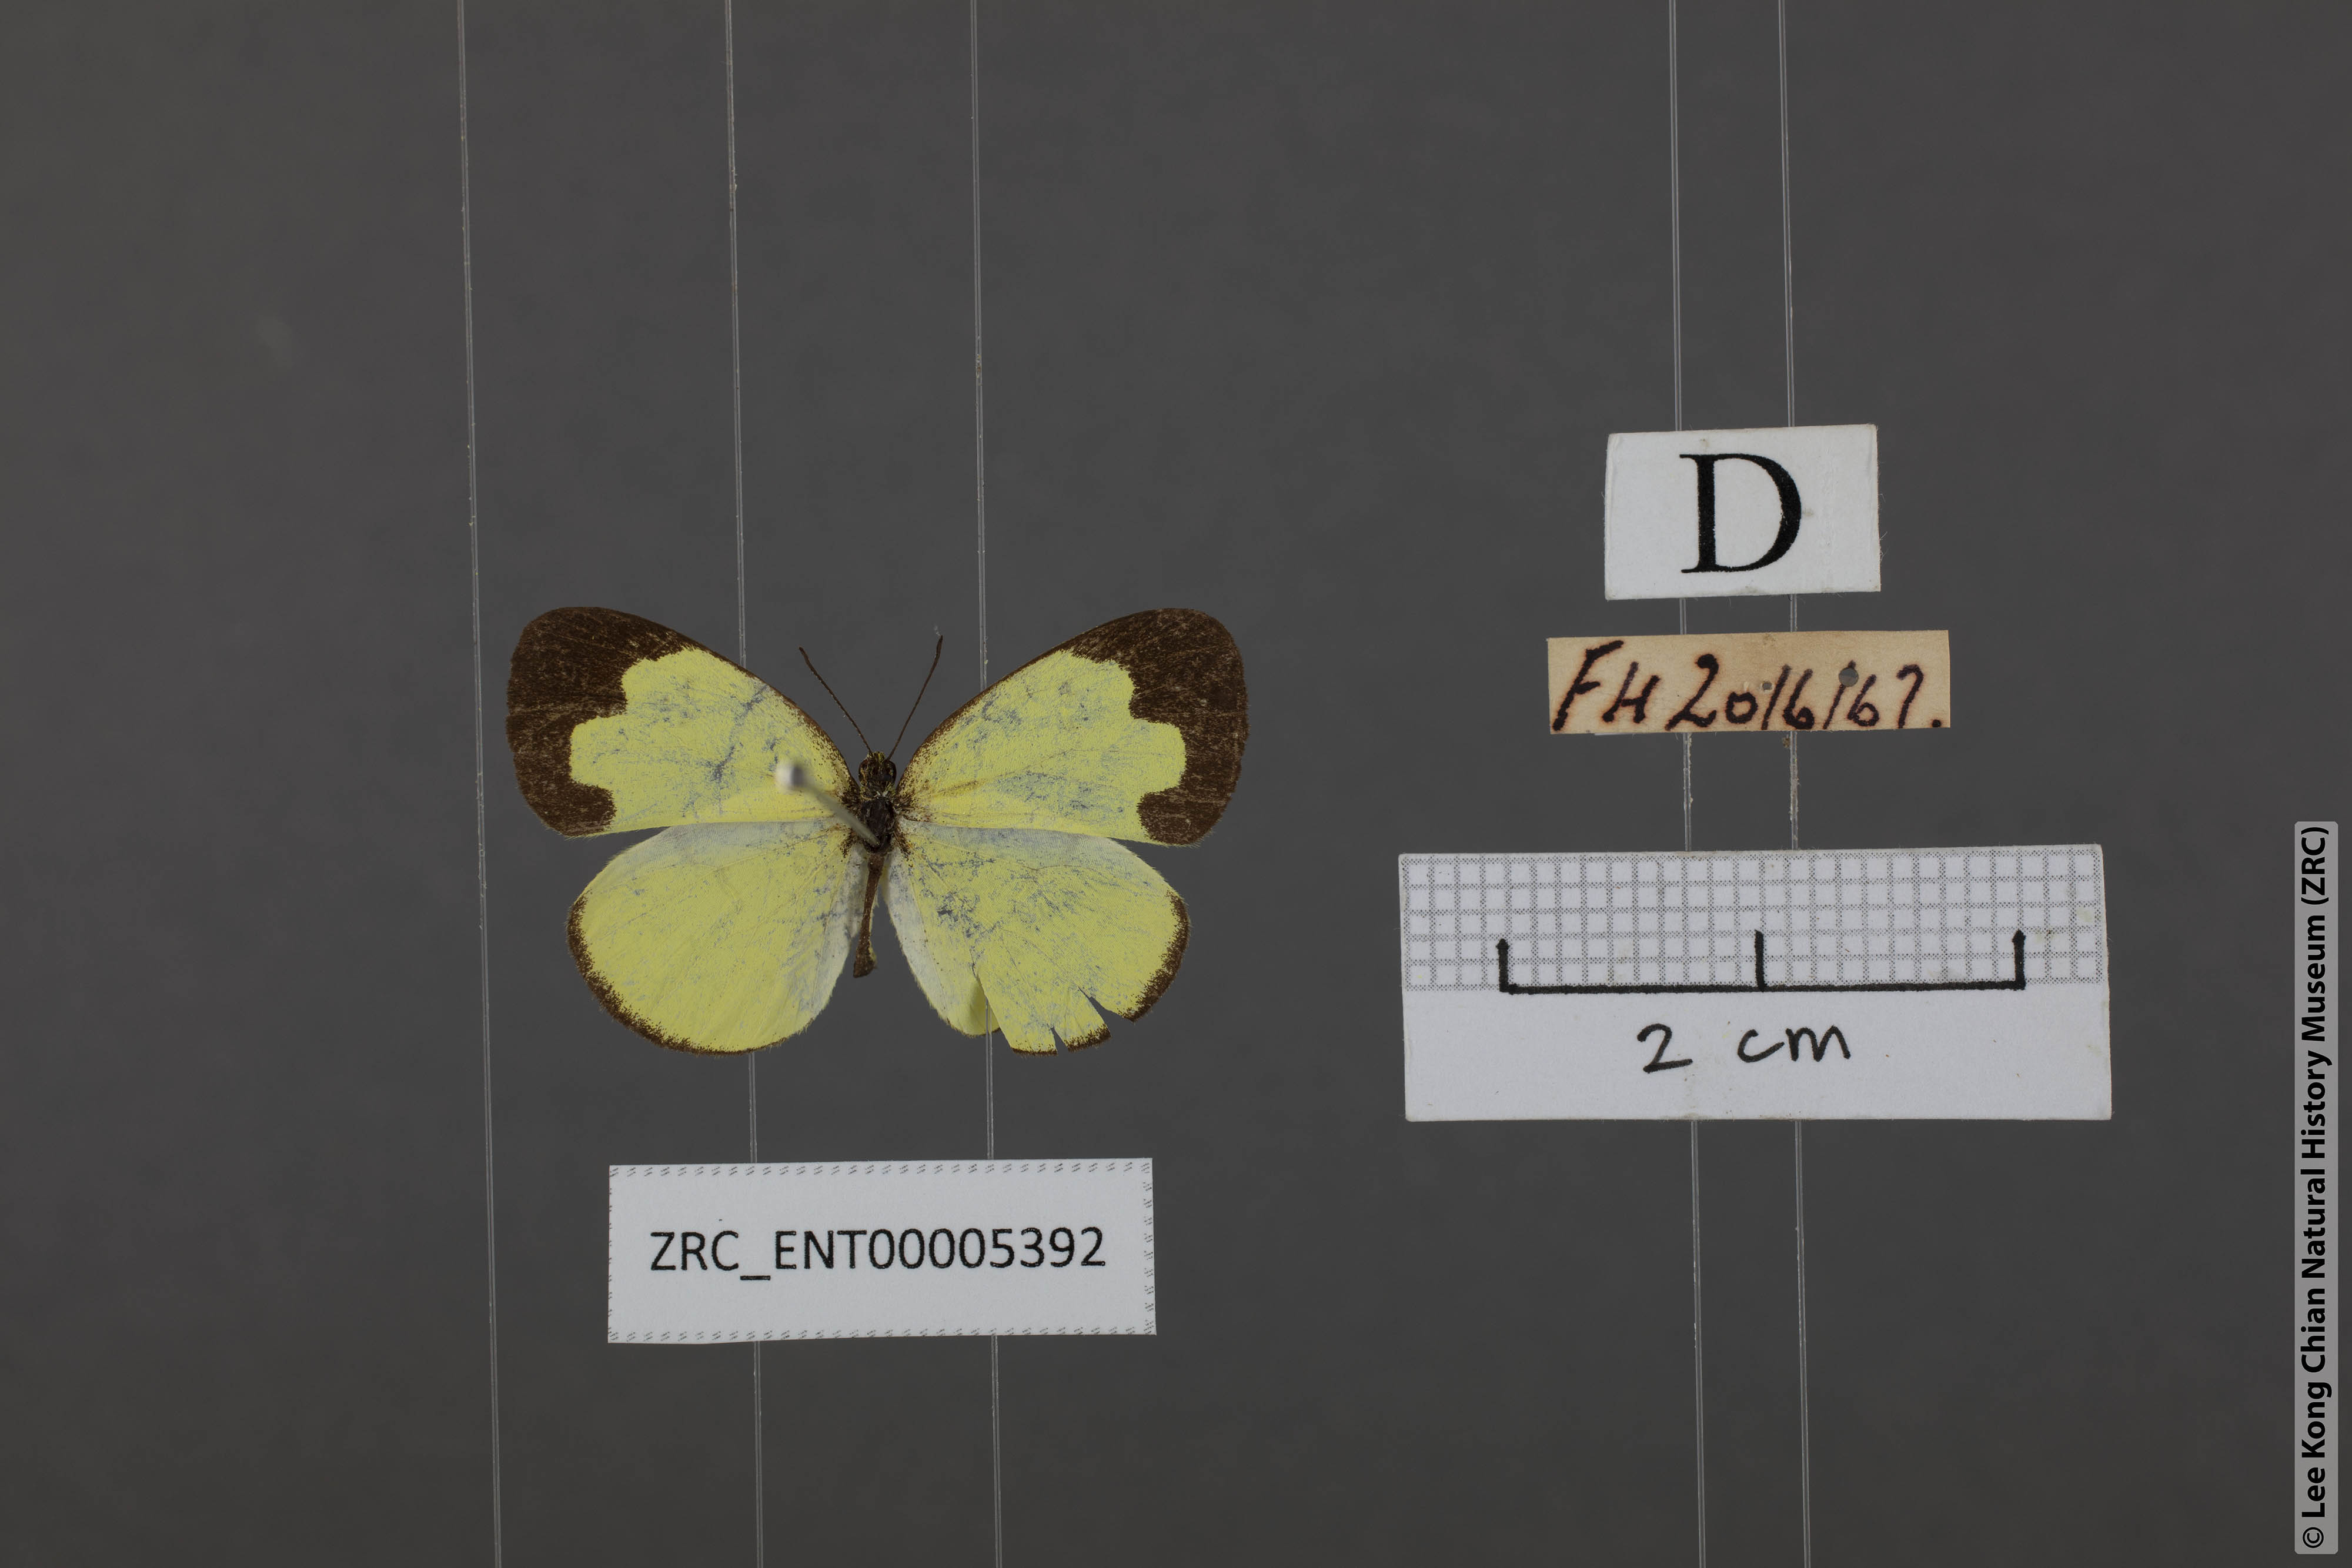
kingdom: Animalia
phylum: Arthropoda
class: Insecta
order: Lepidoptera
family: Pieridae
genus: Eurema
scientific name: Eurema ada
